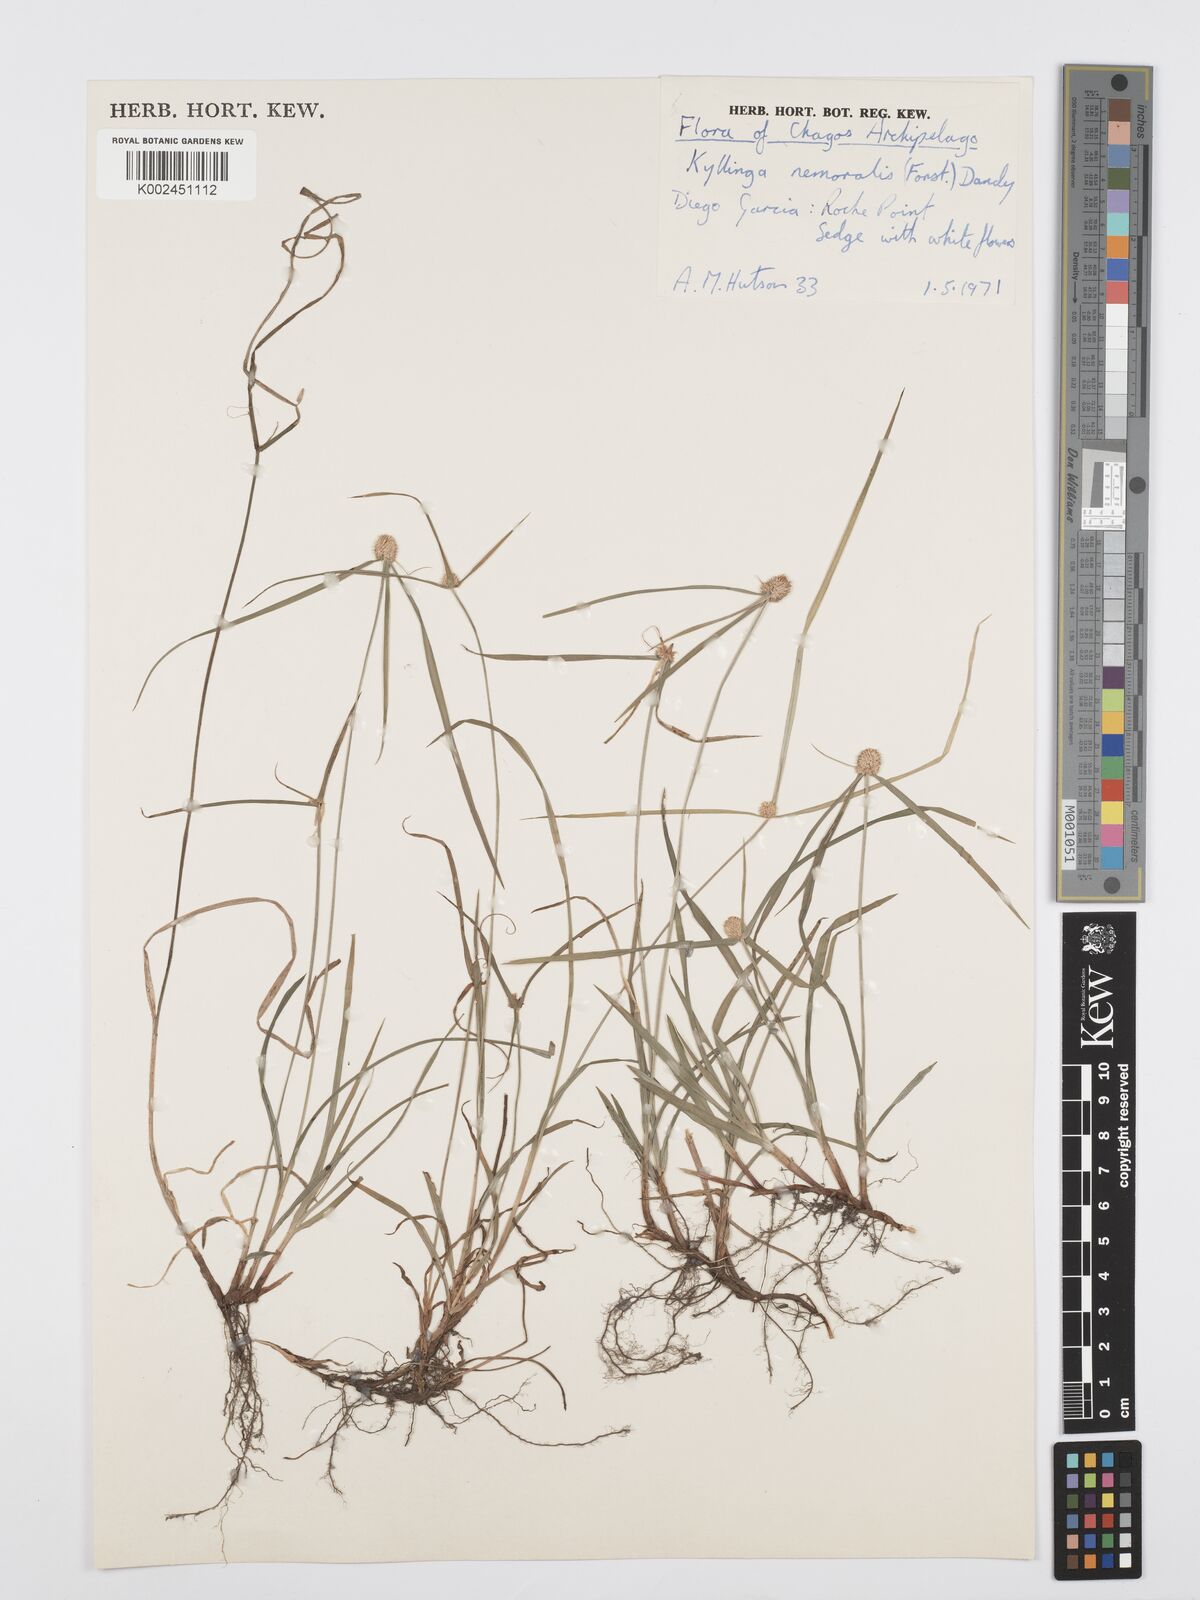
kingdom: Plantae
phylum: Tracheophyta
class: Liliopsida
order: Poales
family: Cyperaceae
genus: Cyperus
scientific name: Cyperus nemoralis
